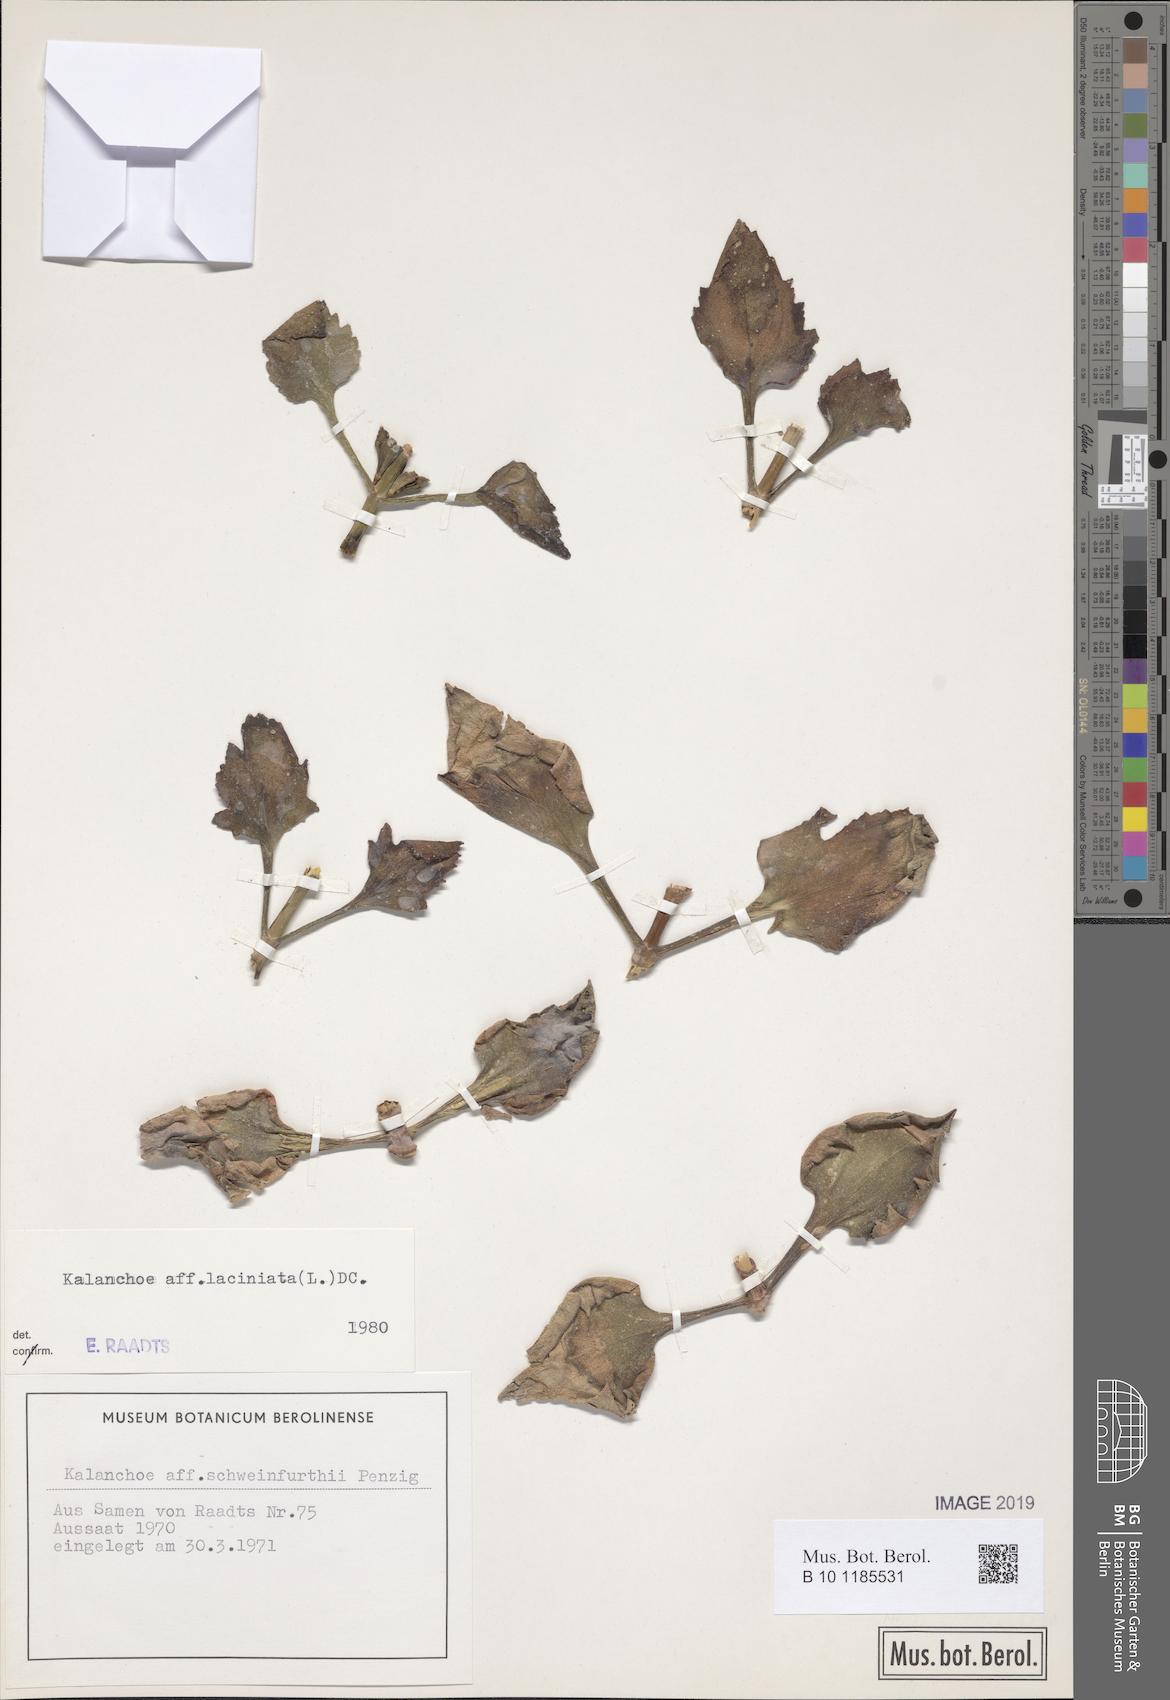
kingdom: Plantae
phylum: Tracheophyta
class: Magnoliopsida
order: Saxifragales
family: Crassulaceae
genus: Kalanchoe
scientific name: Kalanchoe laciniata
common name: Christmastree plant
